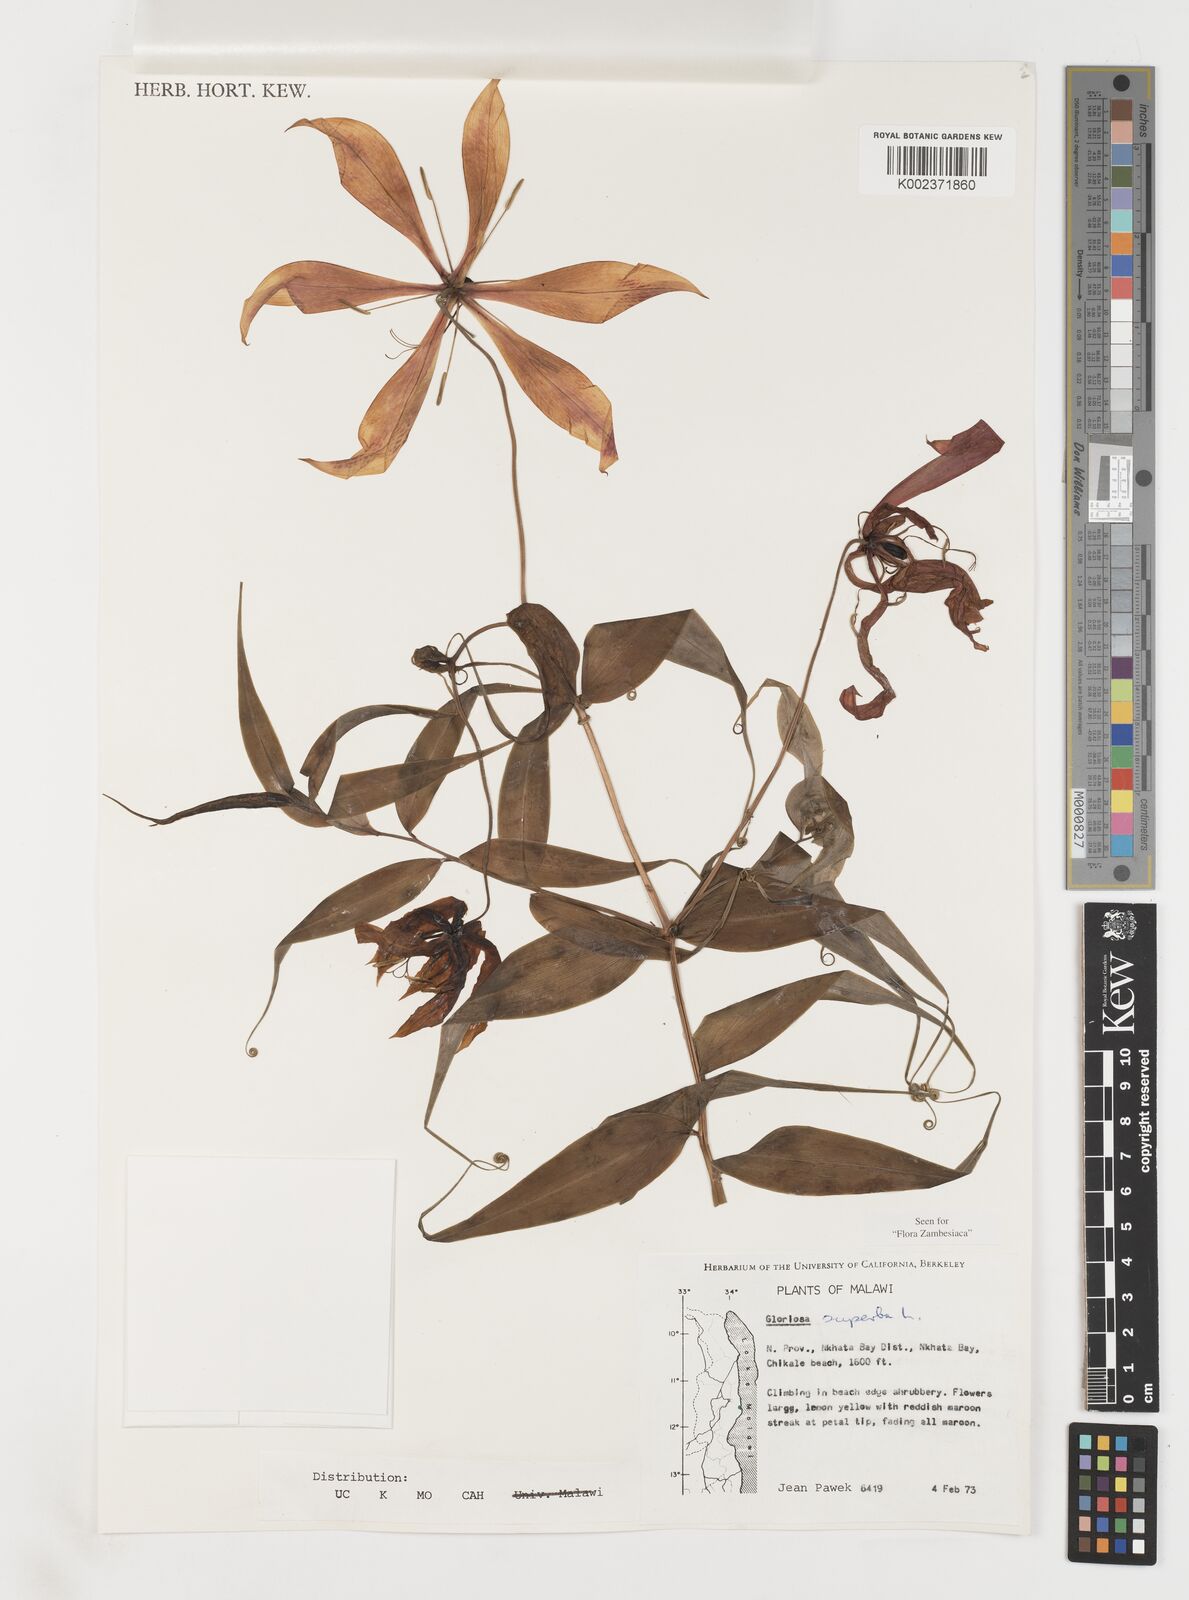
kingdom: Plantae
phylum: Tracheophyta
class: Liliopsida
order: Liliales
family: Colchicaceae
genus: Gloriosa
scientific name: Gloriosa simplex
